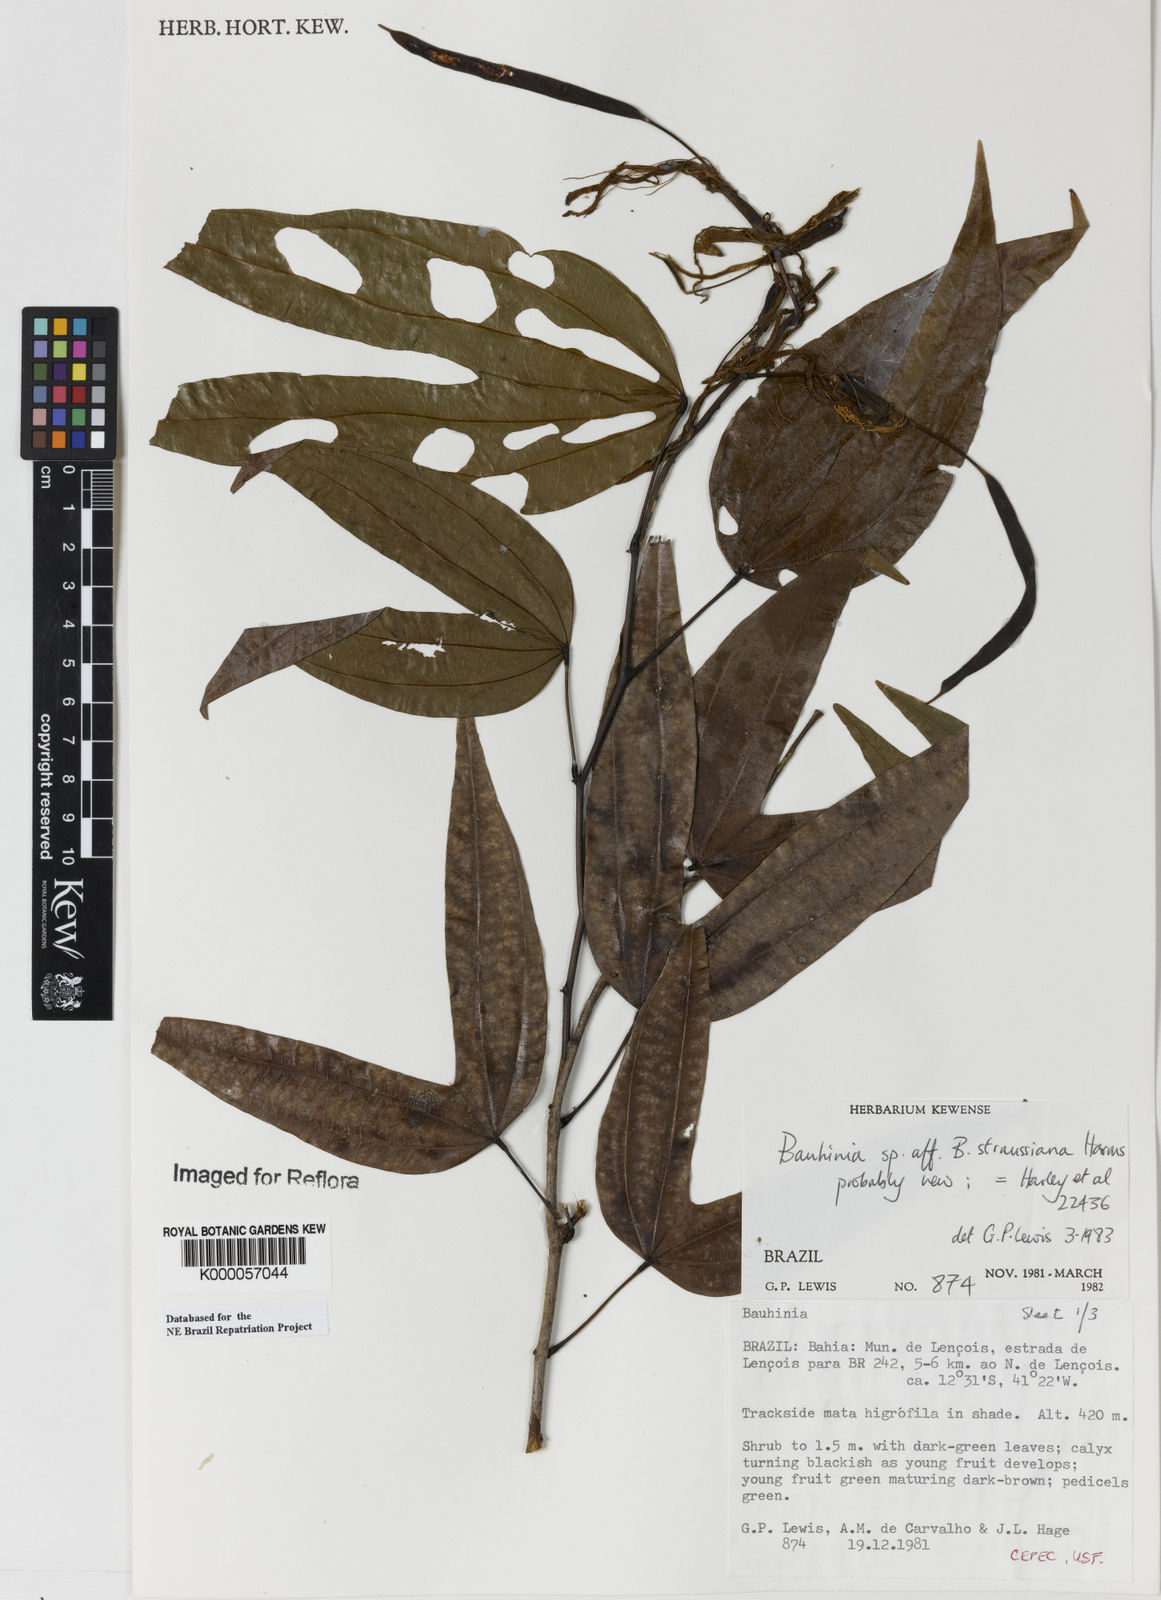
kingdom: Plantae
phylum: Tracheophyta
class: Magnoliopsida
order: Fabales
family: Fabaceae
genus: Bauhinia
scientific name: Bauhinia conwayi
